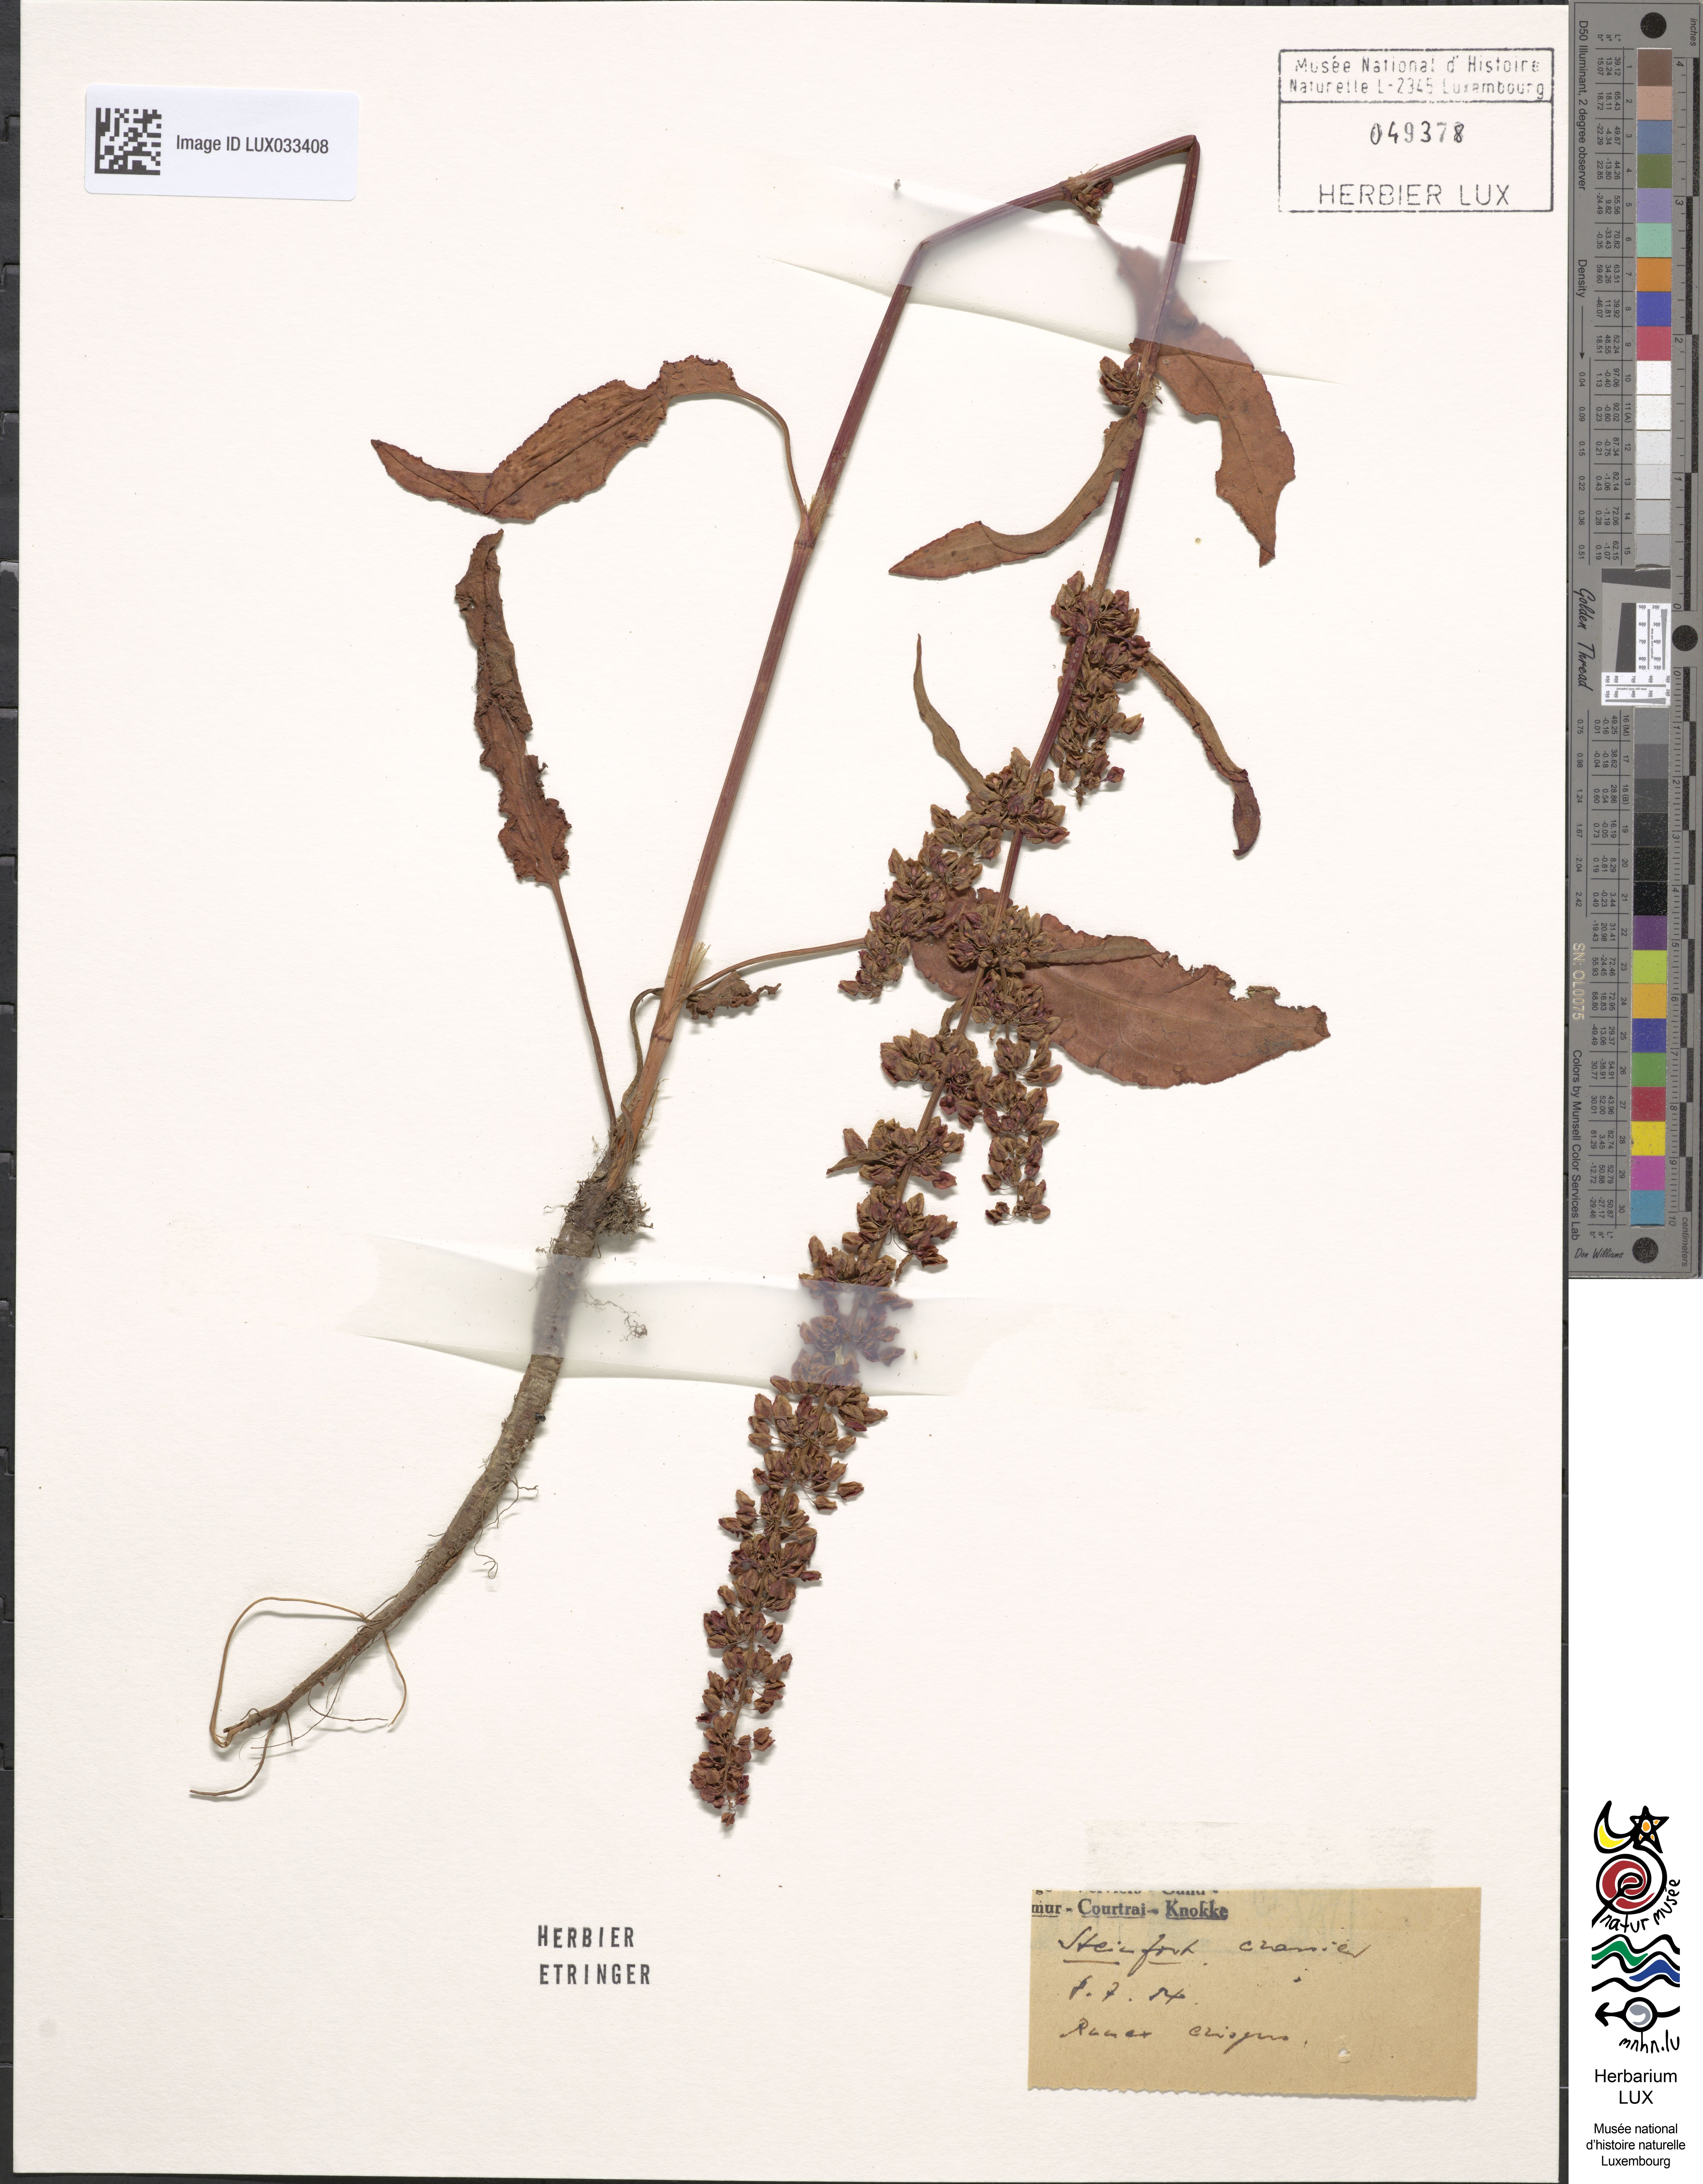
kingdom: Plantae
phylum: Tracheophyta
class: Magnoliopsida
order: Caryophyllales
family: Polygonaceae
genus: Rumex
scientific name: Rumex crispus
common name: Curled dock
